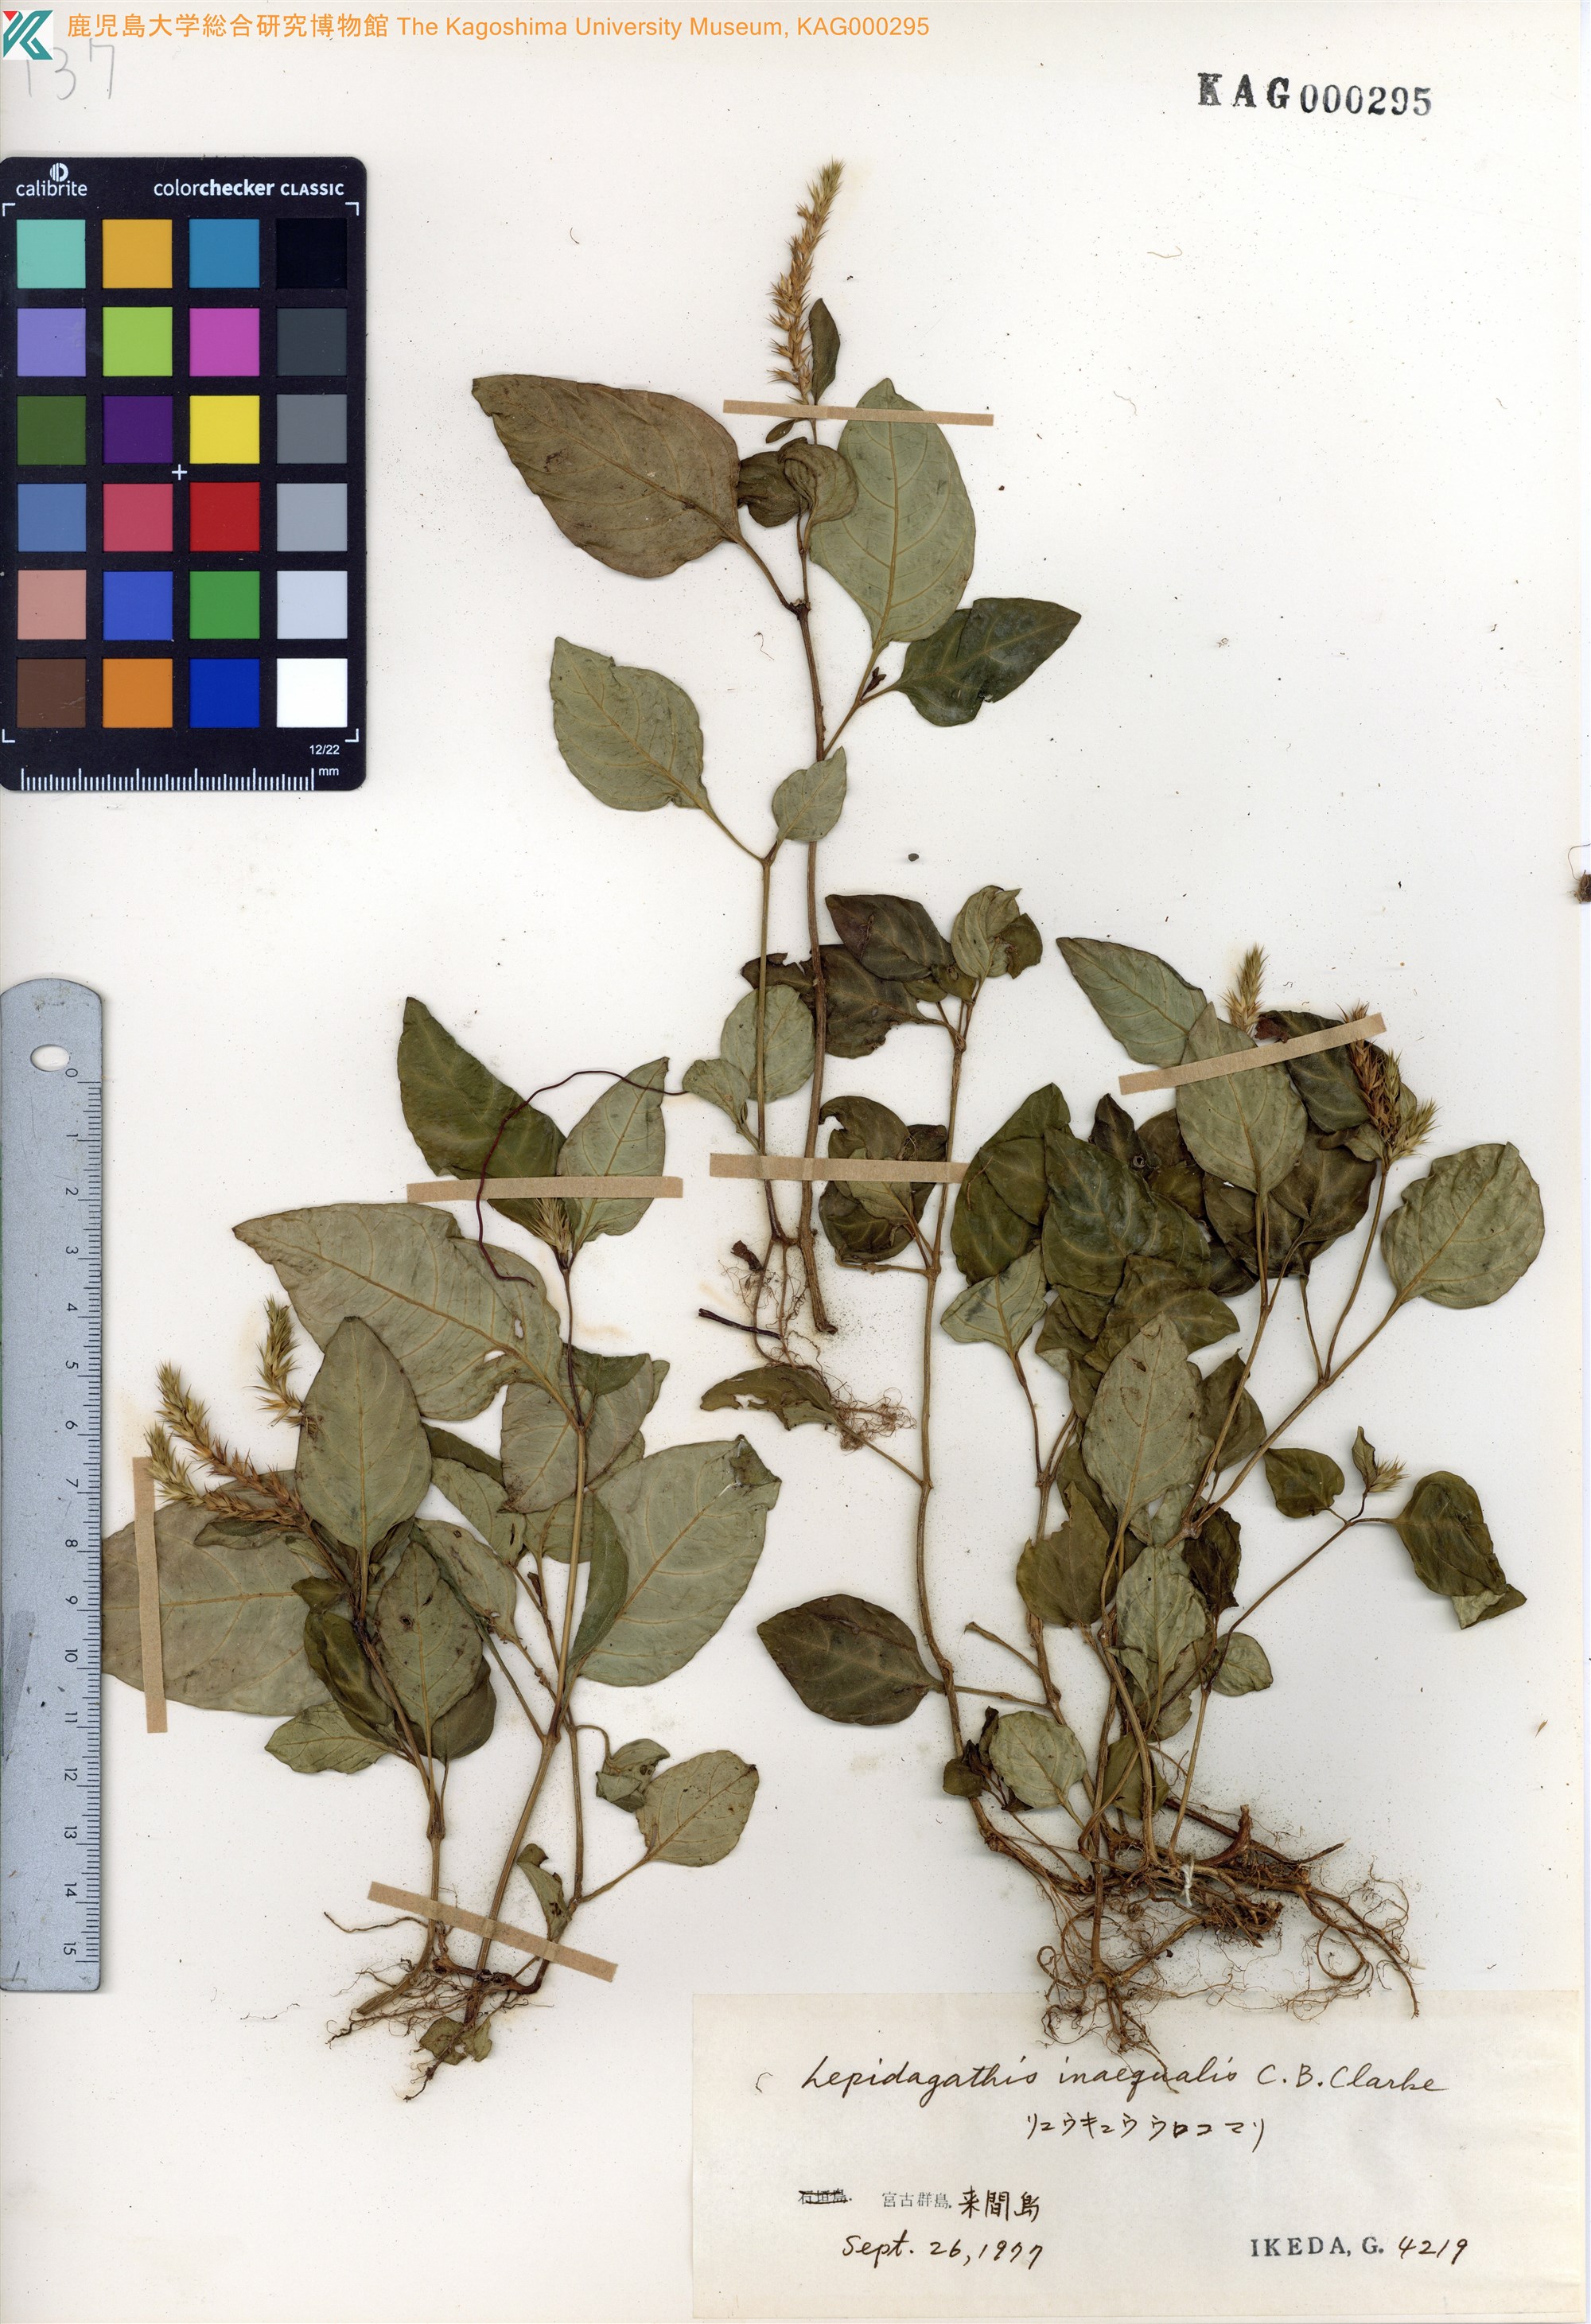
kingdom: Plantae
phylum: Tracheophyta
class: Magnoliopsida
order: Lamiales
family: Acanthaceae
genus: Lepidagathis
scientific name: Lepidagathis inaequalis
